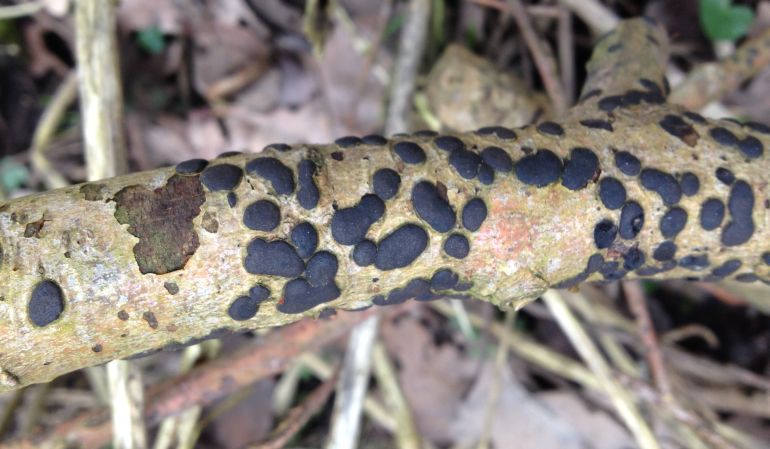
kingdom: Fungi
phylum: Ascomycota
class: Sordariomycetes
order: Xylariales
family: Diatrypaceae
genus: Diatrype
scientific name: Diatrype bullata
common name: pile-kulskorpe
